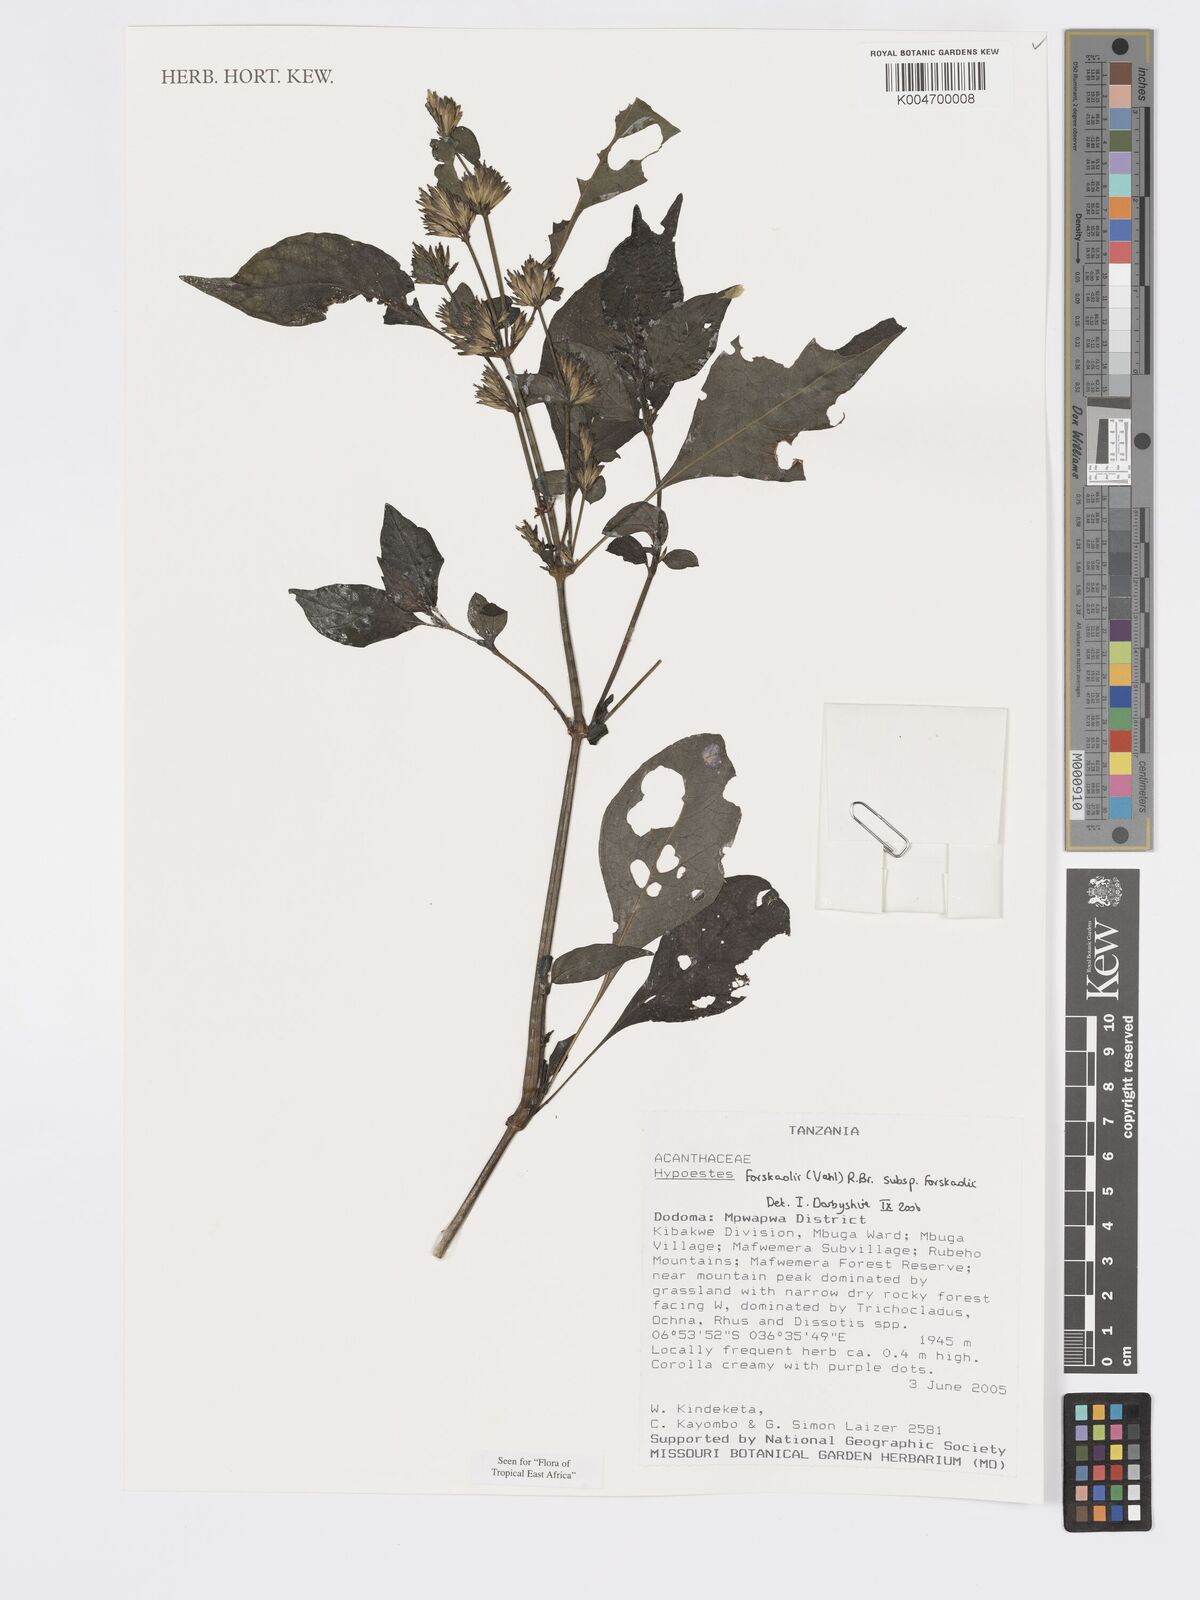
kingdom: Plantae
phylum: Tracheophyta
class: Magnoliopsida
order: Lamiales
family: Acanthaceae
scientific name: Acanthaceae
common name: Acanthaceae
